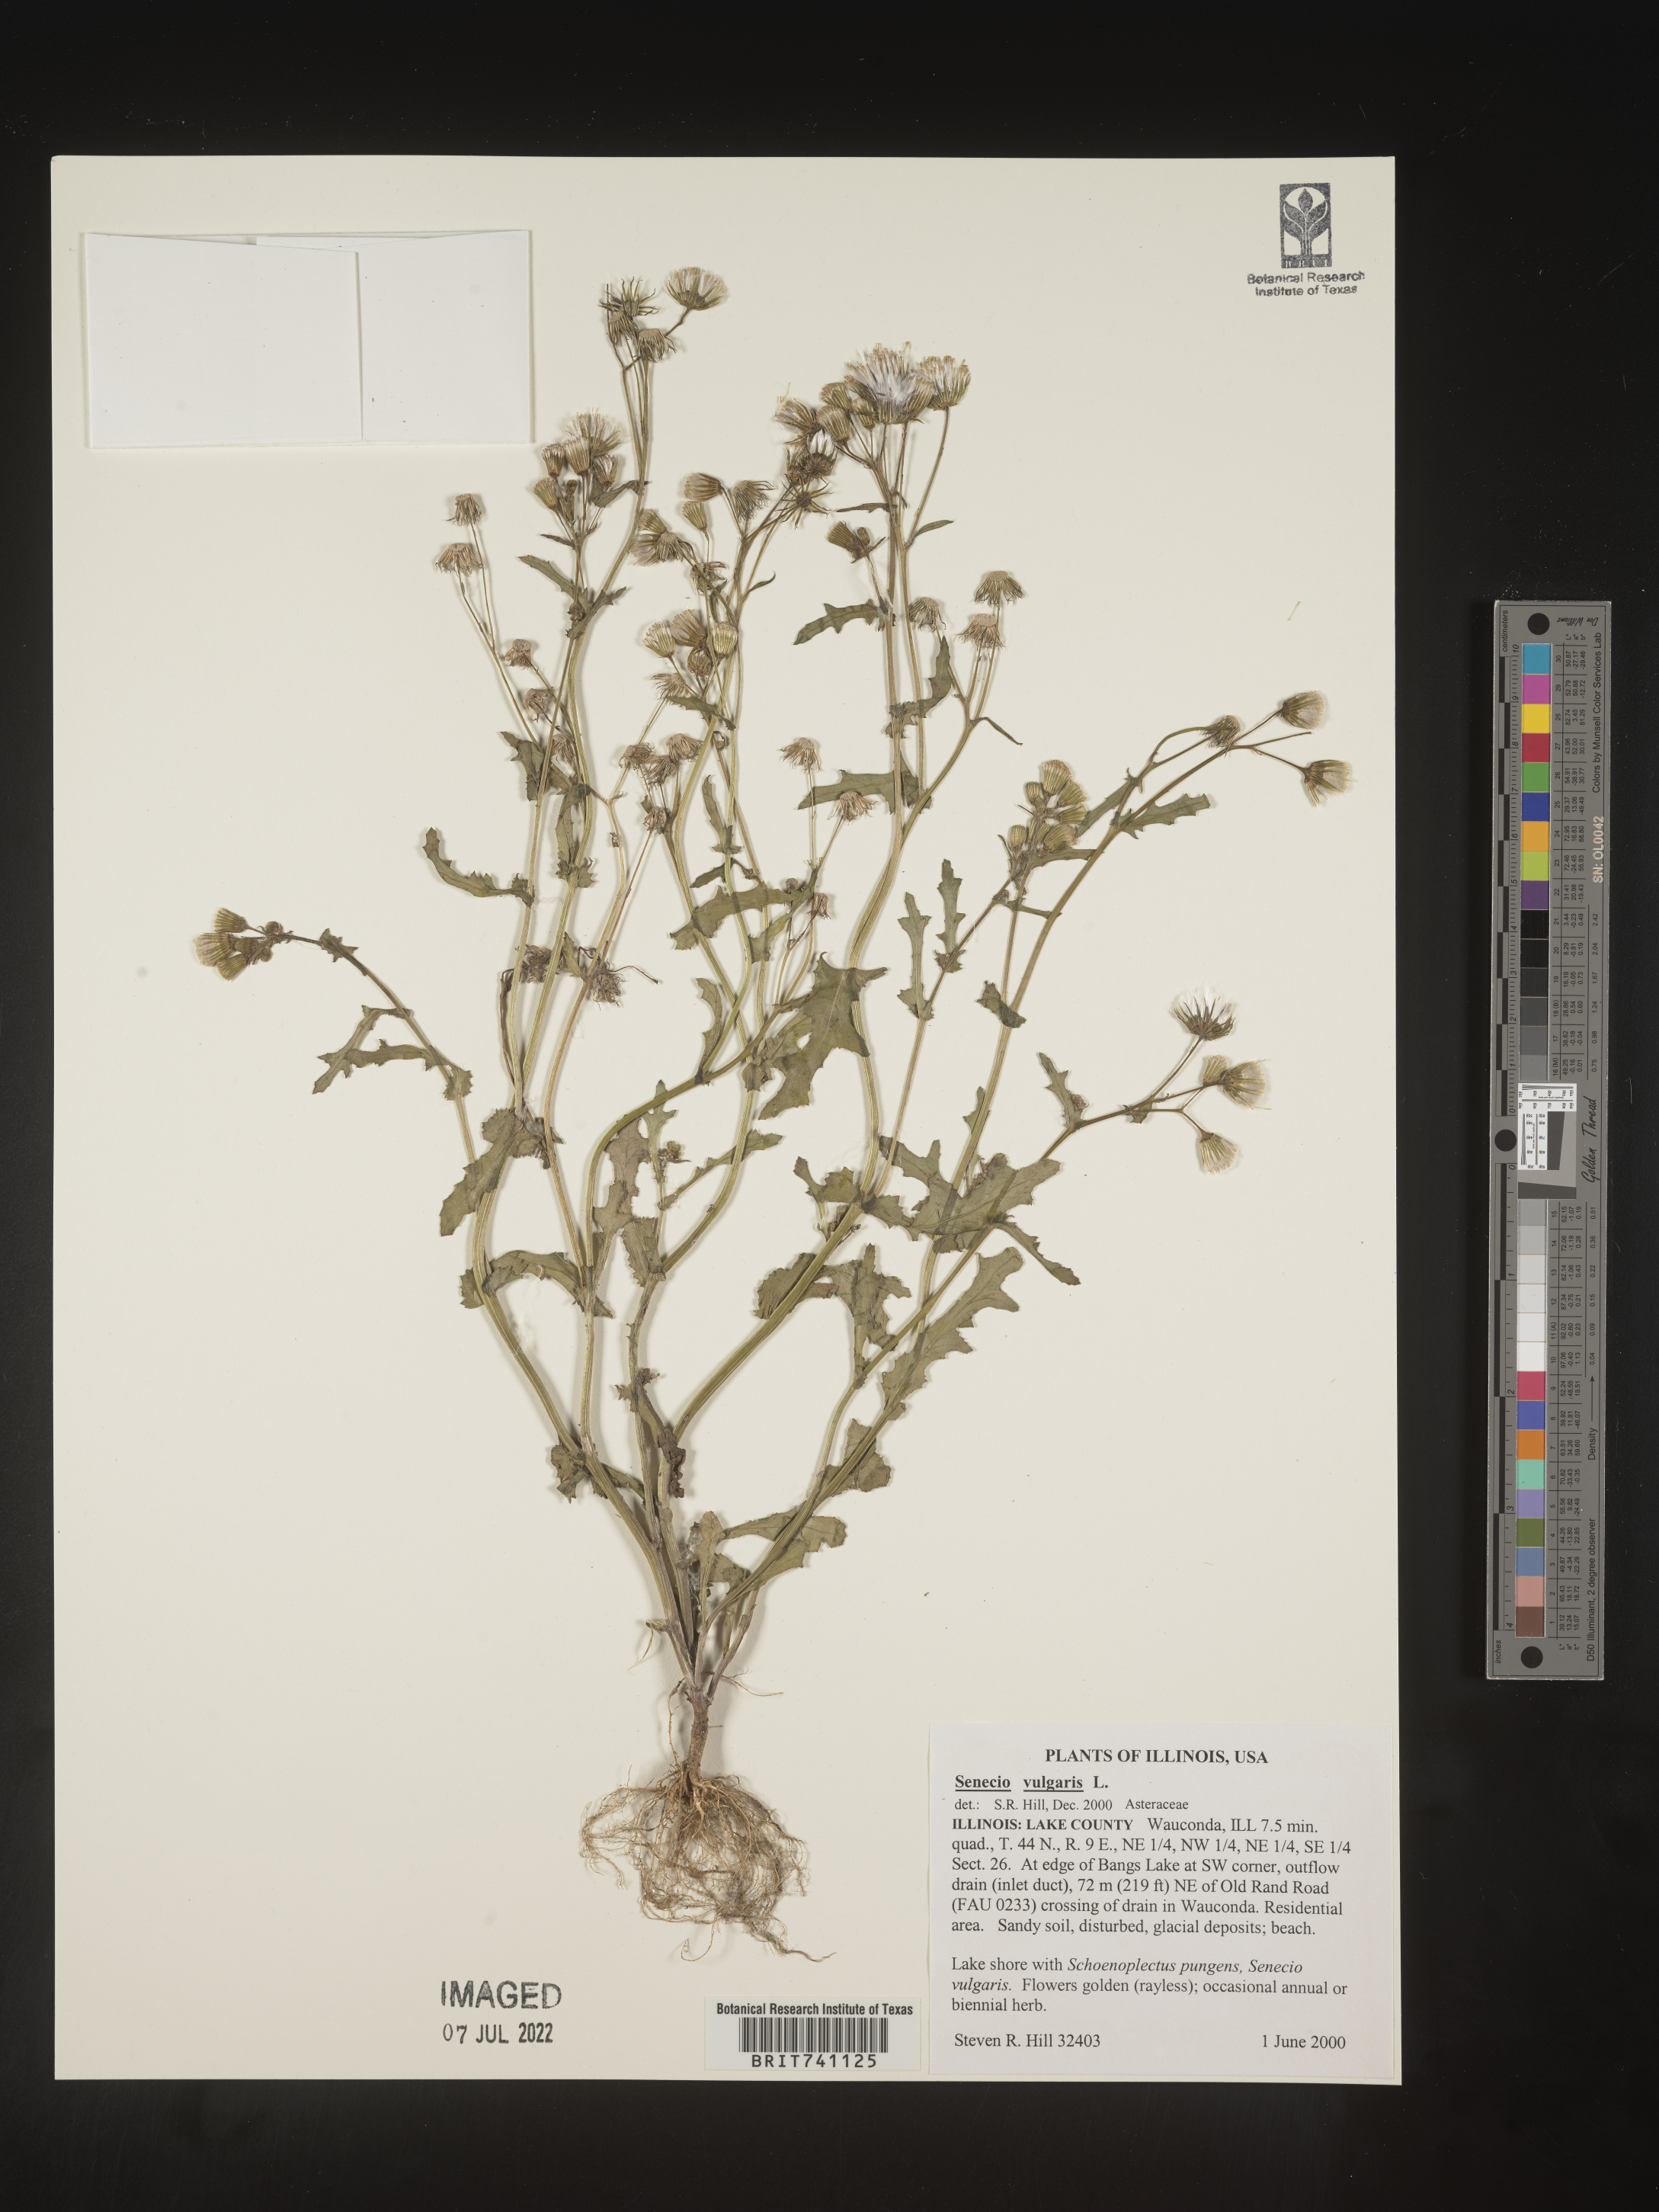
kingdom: Plantae
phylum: Tracheophyta
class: Magnoliopsida
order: Asterales
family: Asteraceae
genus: Senecio
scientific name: Senecio vulgaris
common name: Old-man-in-the-spring
